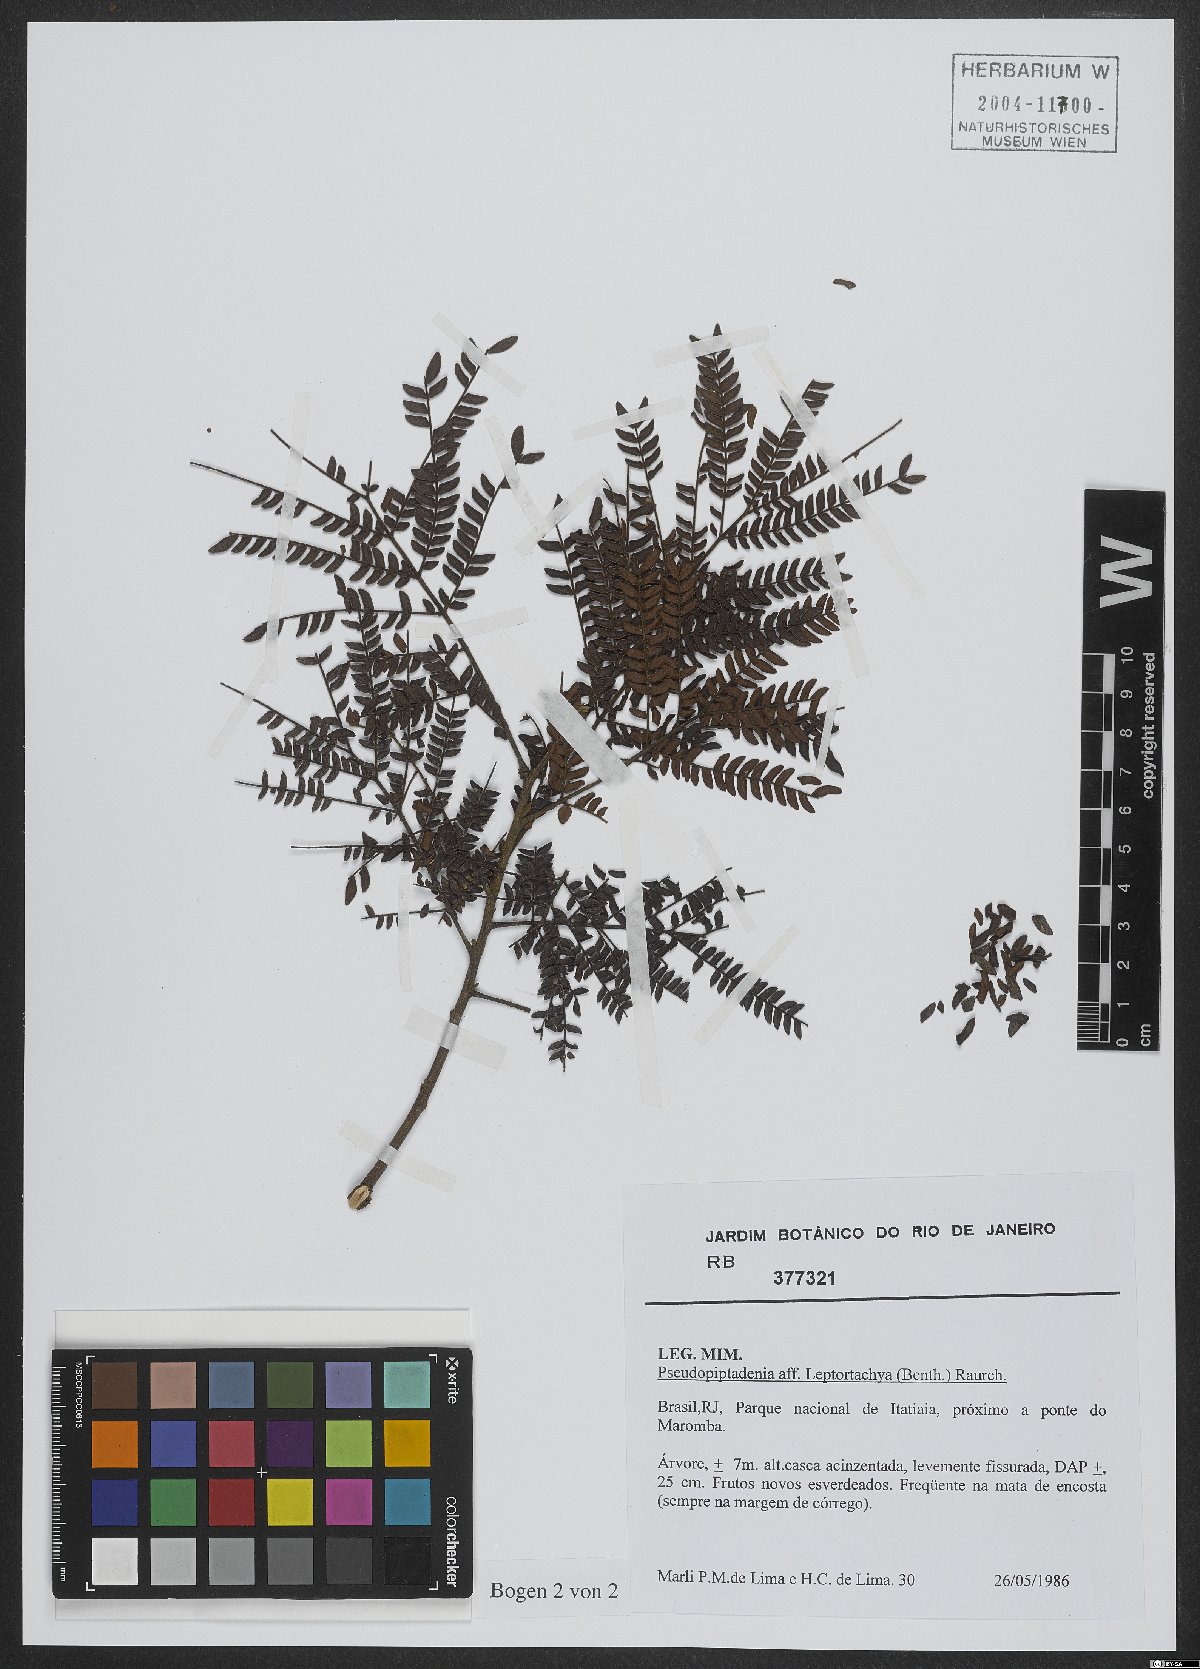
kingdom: Plantae
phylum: Tracheophyta
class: Magnoliopsida
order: Fabales
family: Fabaceae
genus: Pseudopiptadenia
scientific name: Pseudopiptadenia leptostachya
